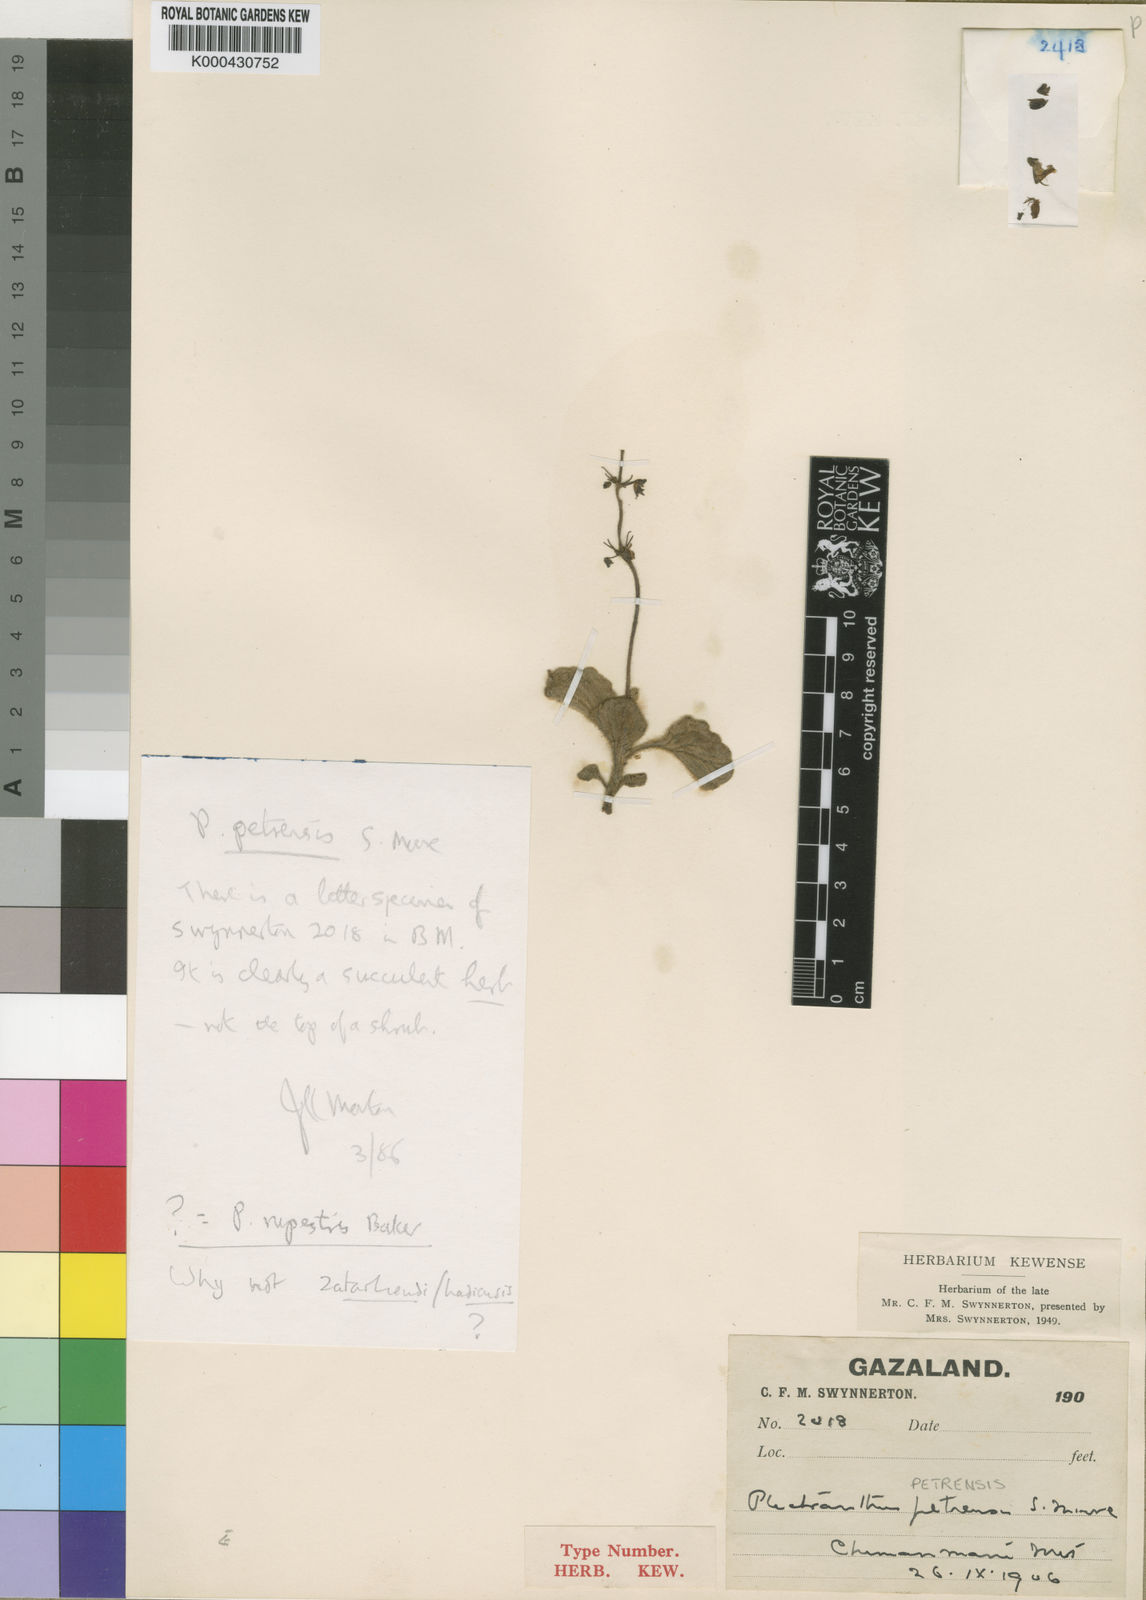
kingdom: Plantae
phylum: Tracheophyta
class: Magnoliopsida
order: Lamiales
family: Lamiaceae
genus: Coleus
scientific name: Coleus hadiensis
